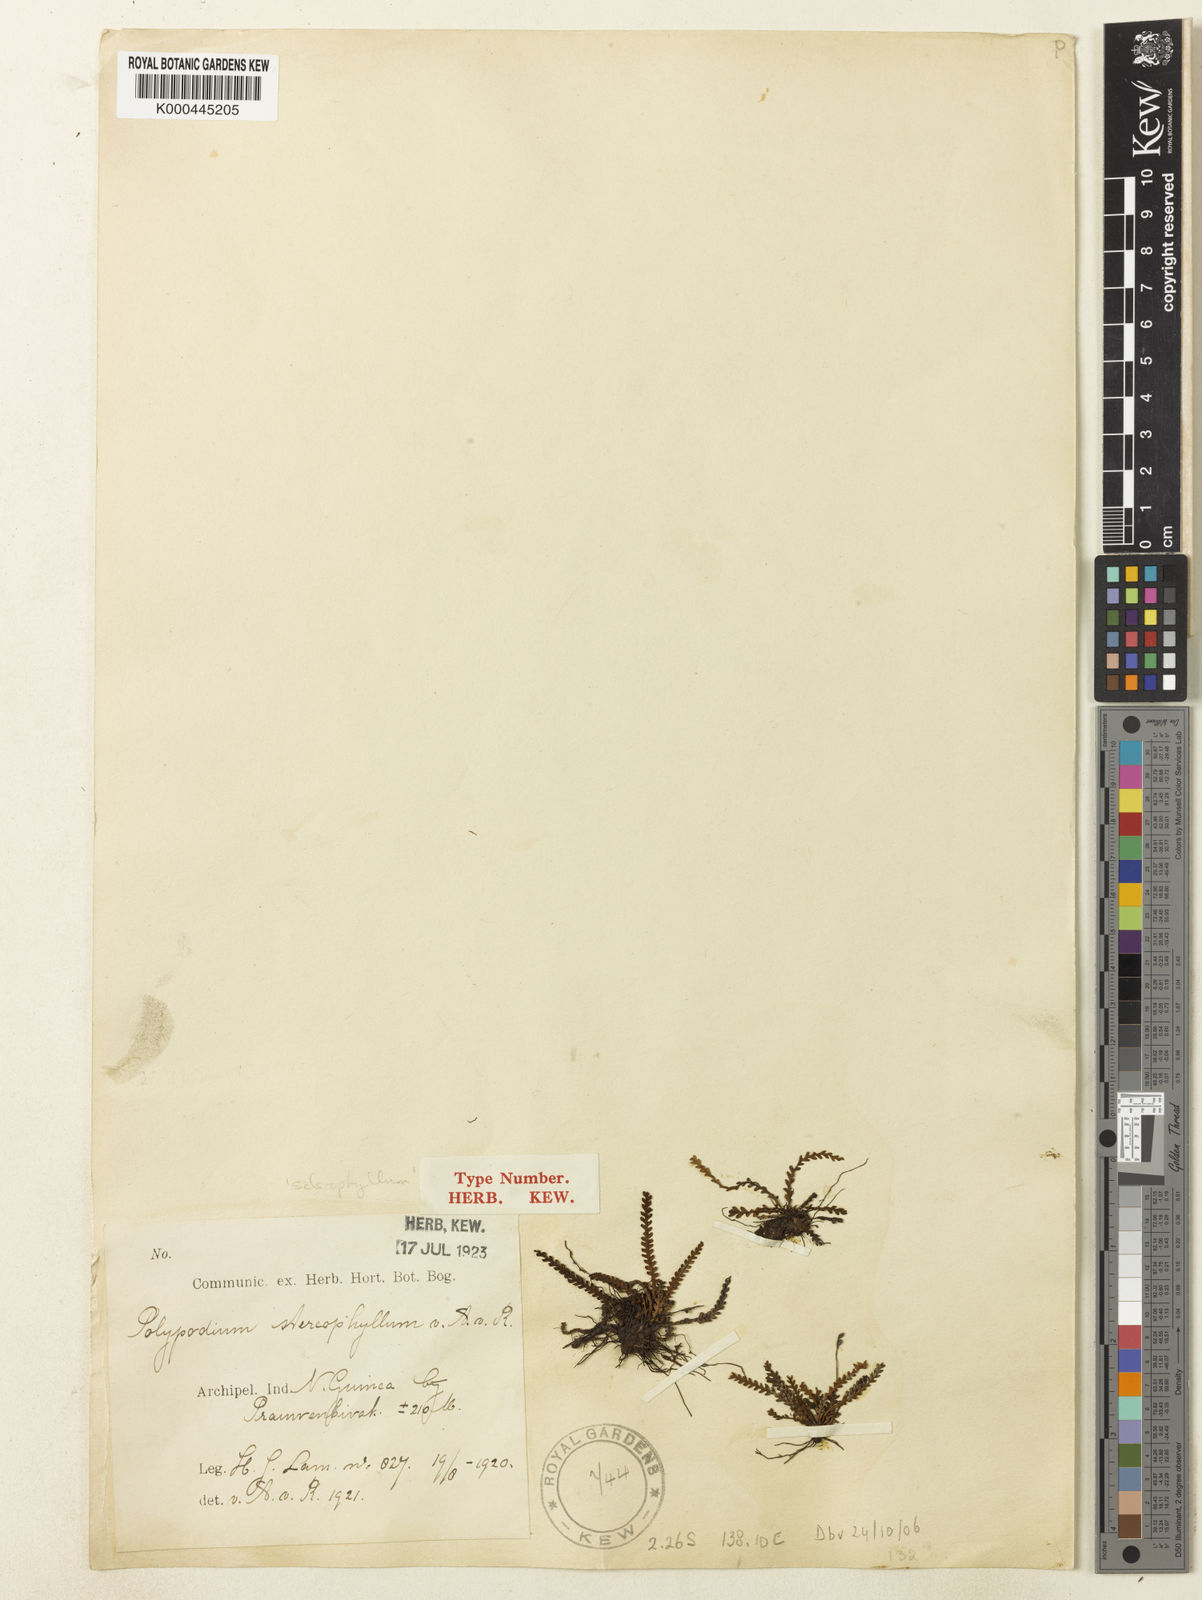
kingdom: Plantae
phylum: Tracheophyta
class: Polypodiopsida
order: Polypodiales
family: Polypodiaceae
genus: Acrosorus
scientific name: Acrosorus sclerophyllus
